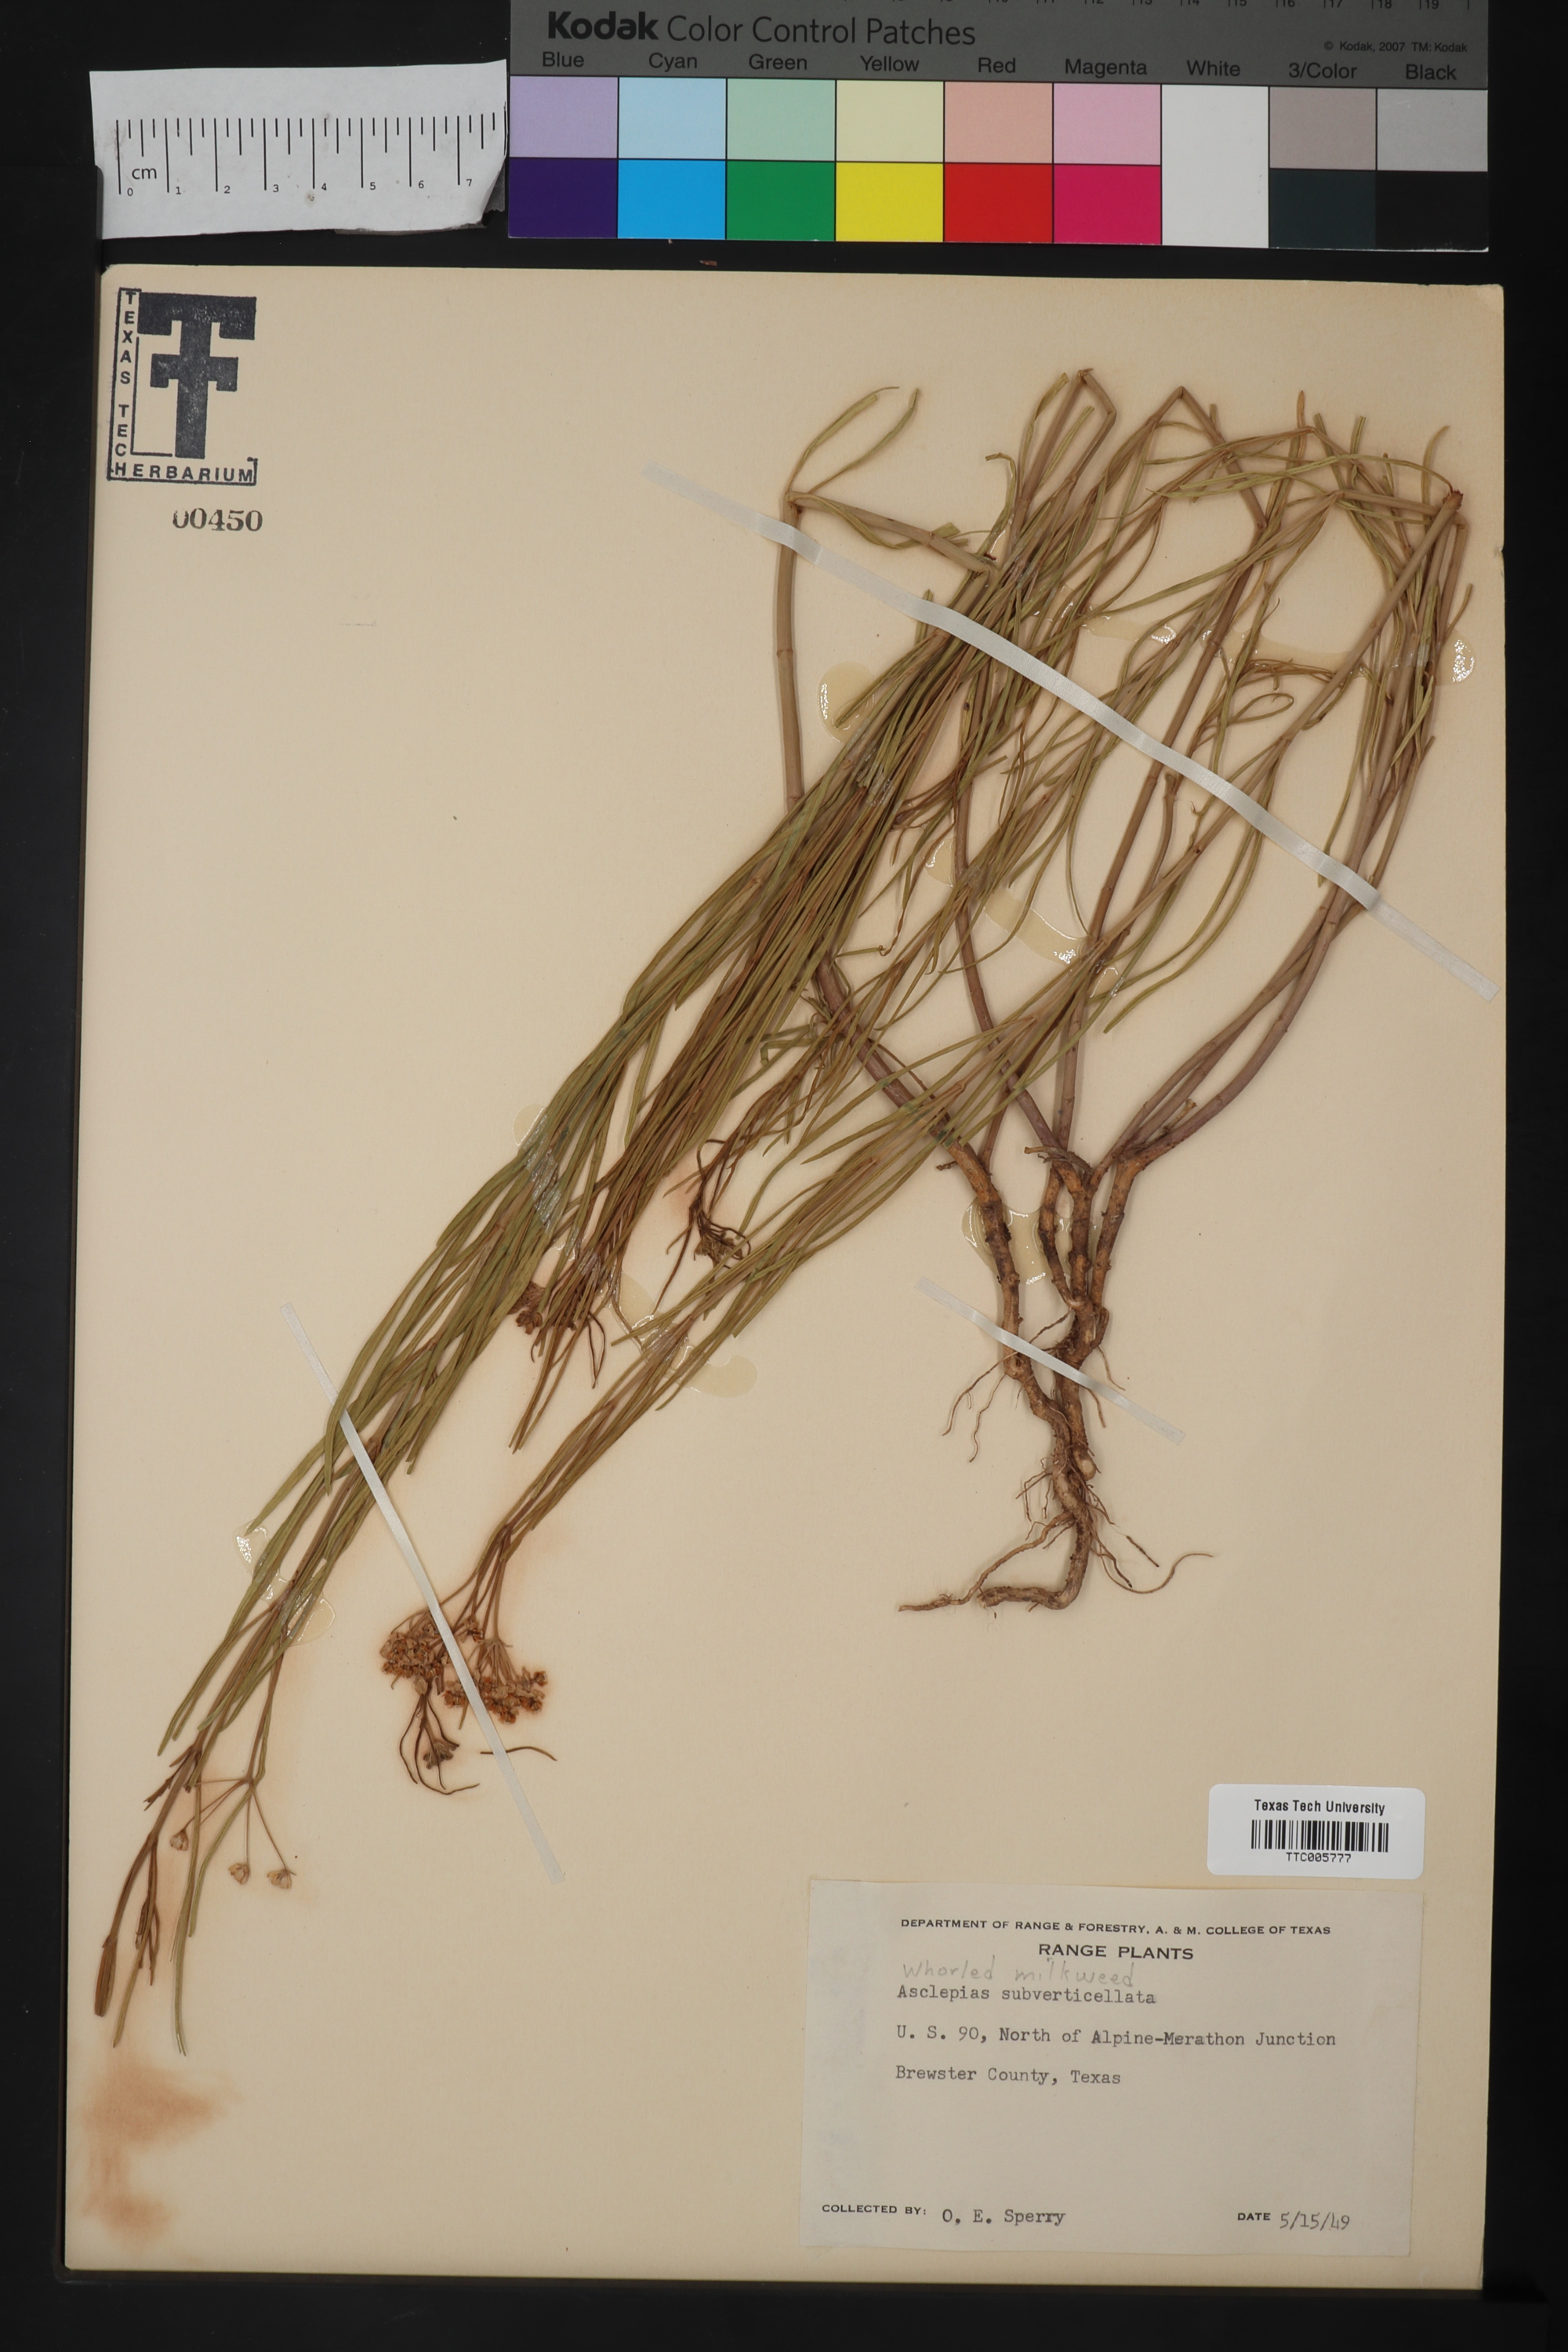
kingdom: Plantae
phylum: Tracheophyta
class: Magnoliopsida
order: Gentianales
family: Apocynaceae
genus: Asclepias
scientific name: Asclepias subverticillata
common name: Horsetail milkweed
